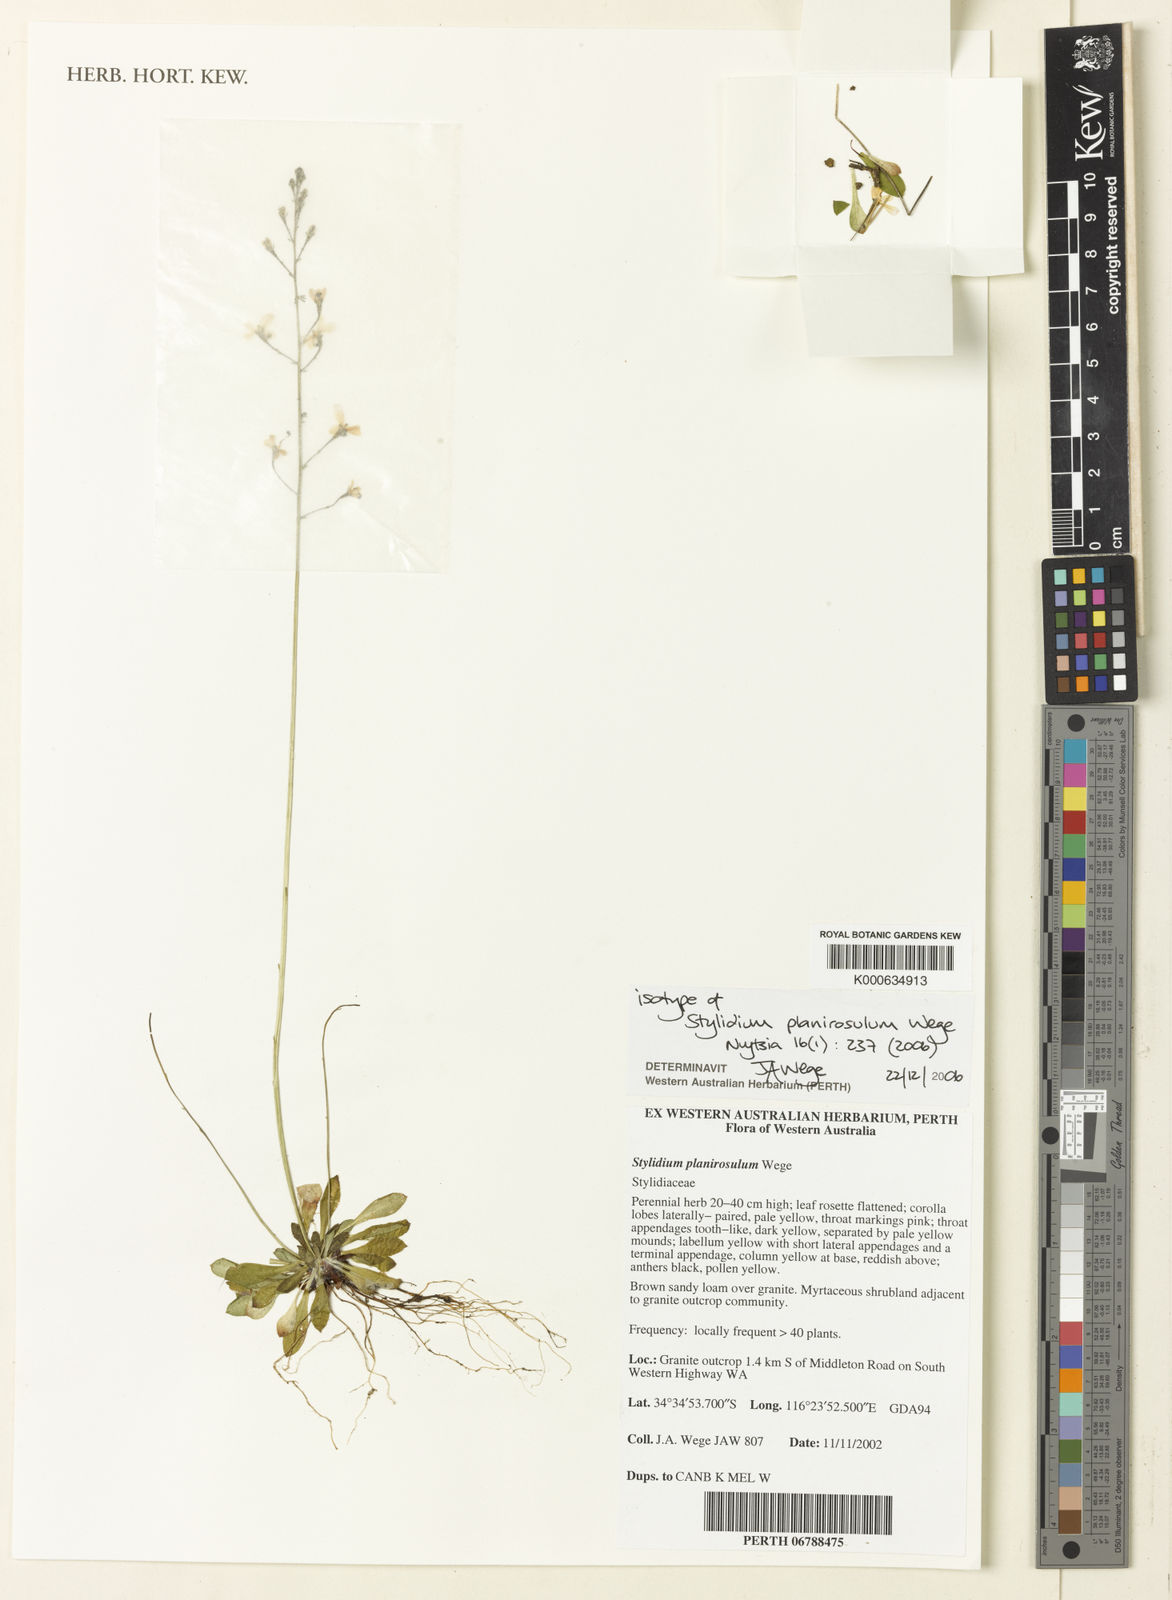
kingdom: Plantae
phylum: Tracheophyta
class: Magnoliopsida
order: Asterales
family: Stylidiaceae
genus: Stylidium
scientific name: Stylidium
